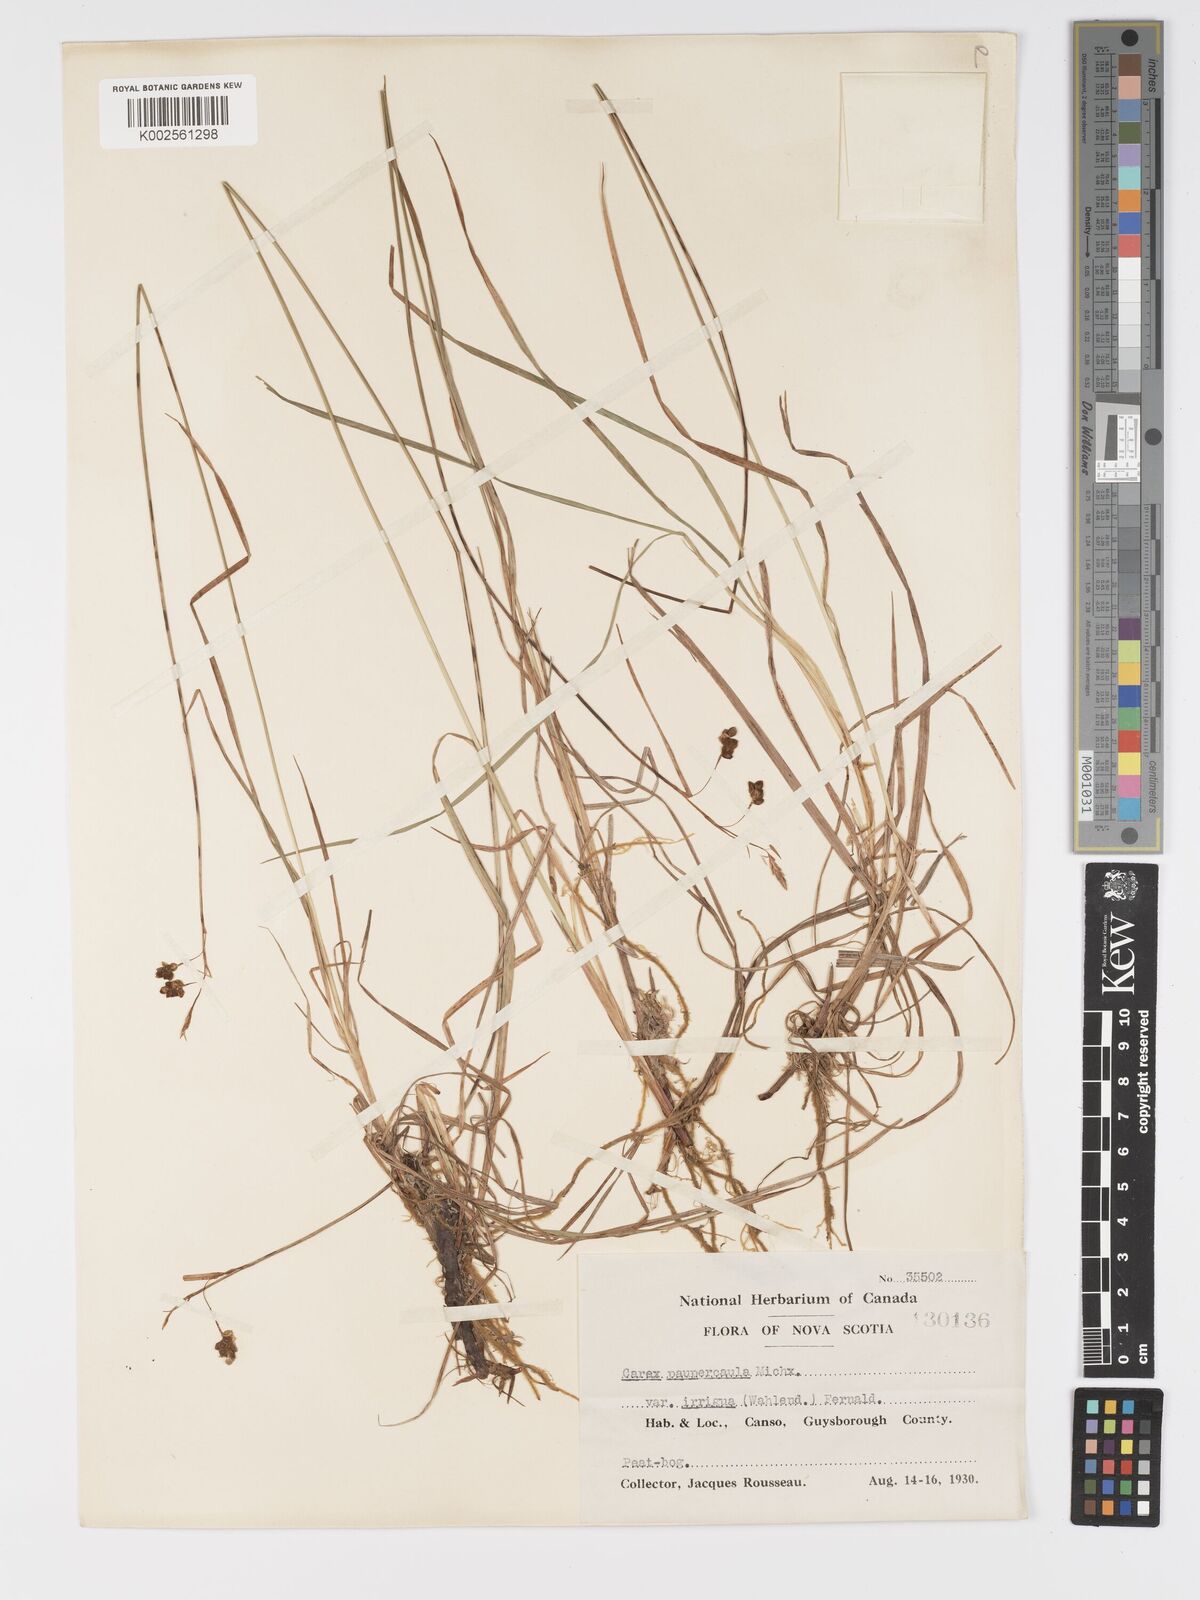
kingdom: Plantae
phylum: Tracheophyta
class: Liliopsida
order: Poales
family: Cyperaceae
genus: Carex
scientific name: Carex magellanica
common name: Bog sedge
